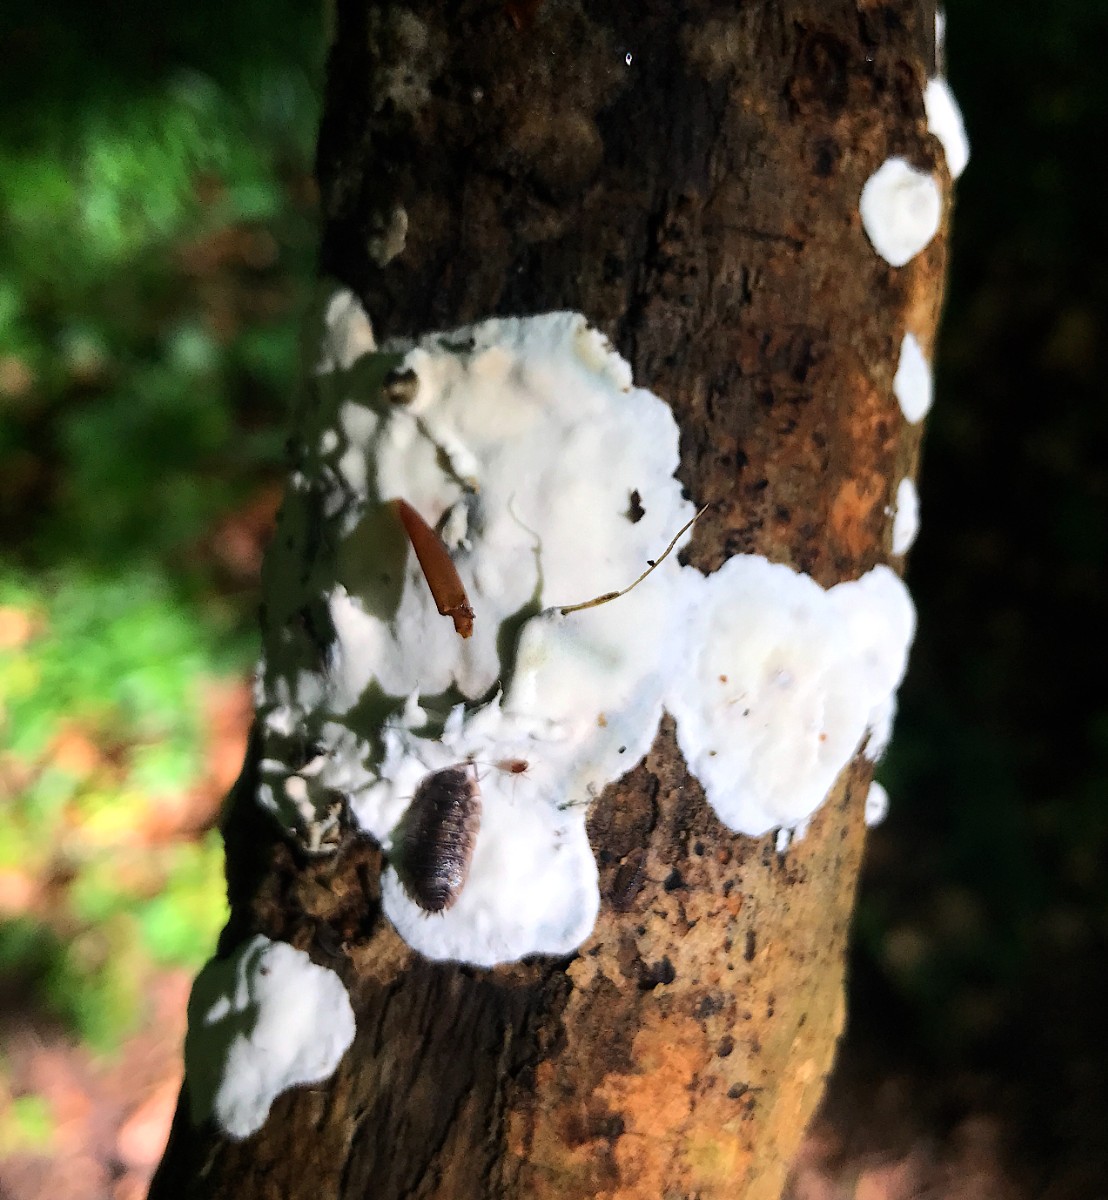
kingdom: Fungi
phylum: Basidiomycota
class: Agaricomycetes
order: Polyporales
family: Incrustoporiaceae
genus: Skeletocutis
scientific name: Skeletocutis nemoralis
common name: stor krystalporesvamp
